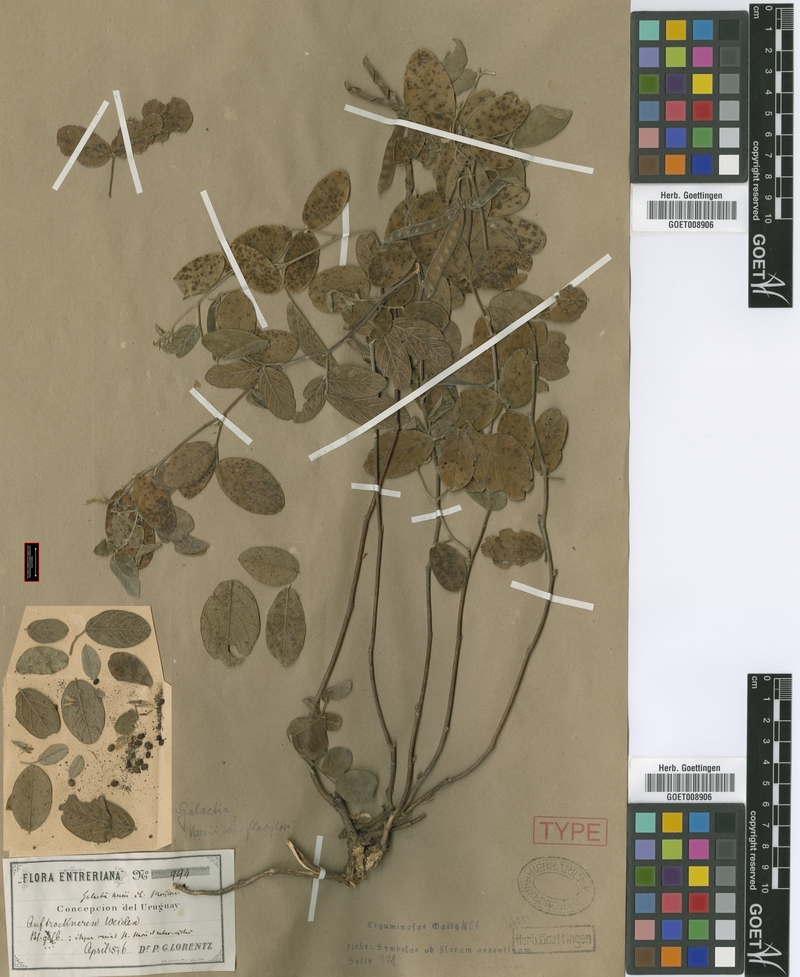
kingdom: Plantae
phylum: Tracheophyta
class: Magnoliopsida
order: Fabales
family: Fabaceae
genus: Galactia
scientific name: Galactia latisiliqua
